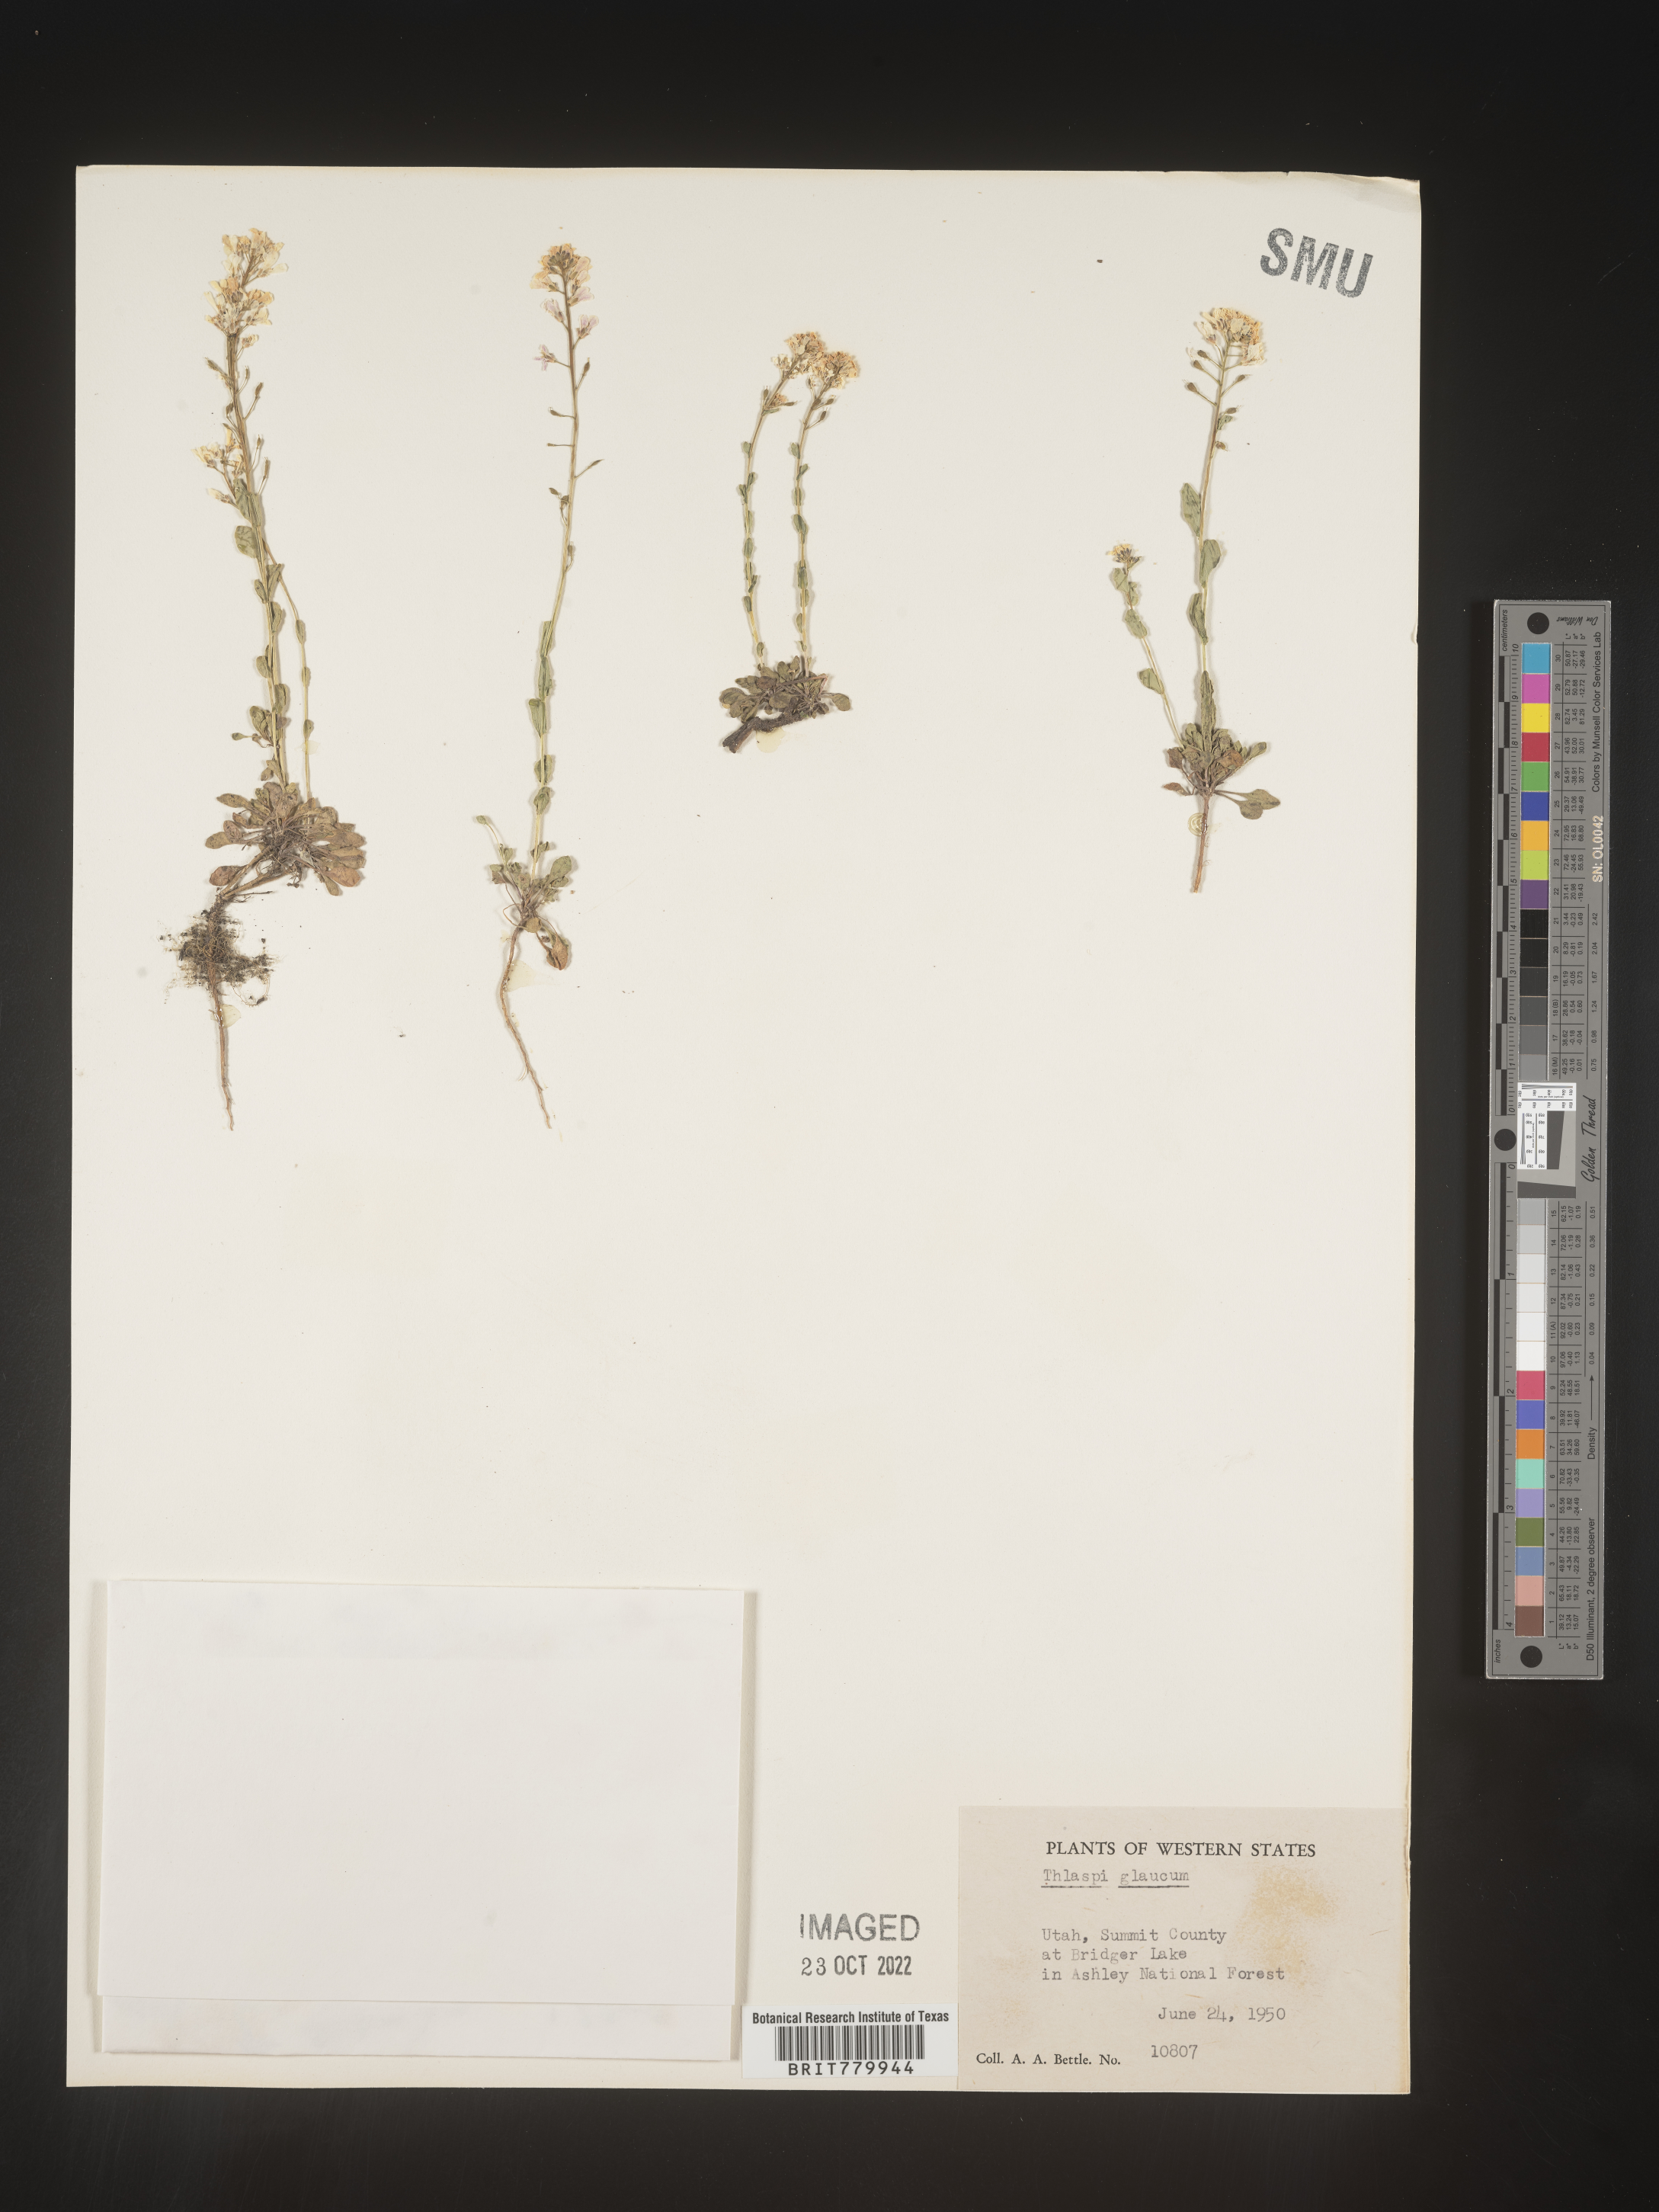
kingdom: Plantae
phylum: Tracheophyta
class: Magnoliopsida
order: Brassicales
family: Brassicaceae
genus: Thlaspi
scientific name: Thlaspi
